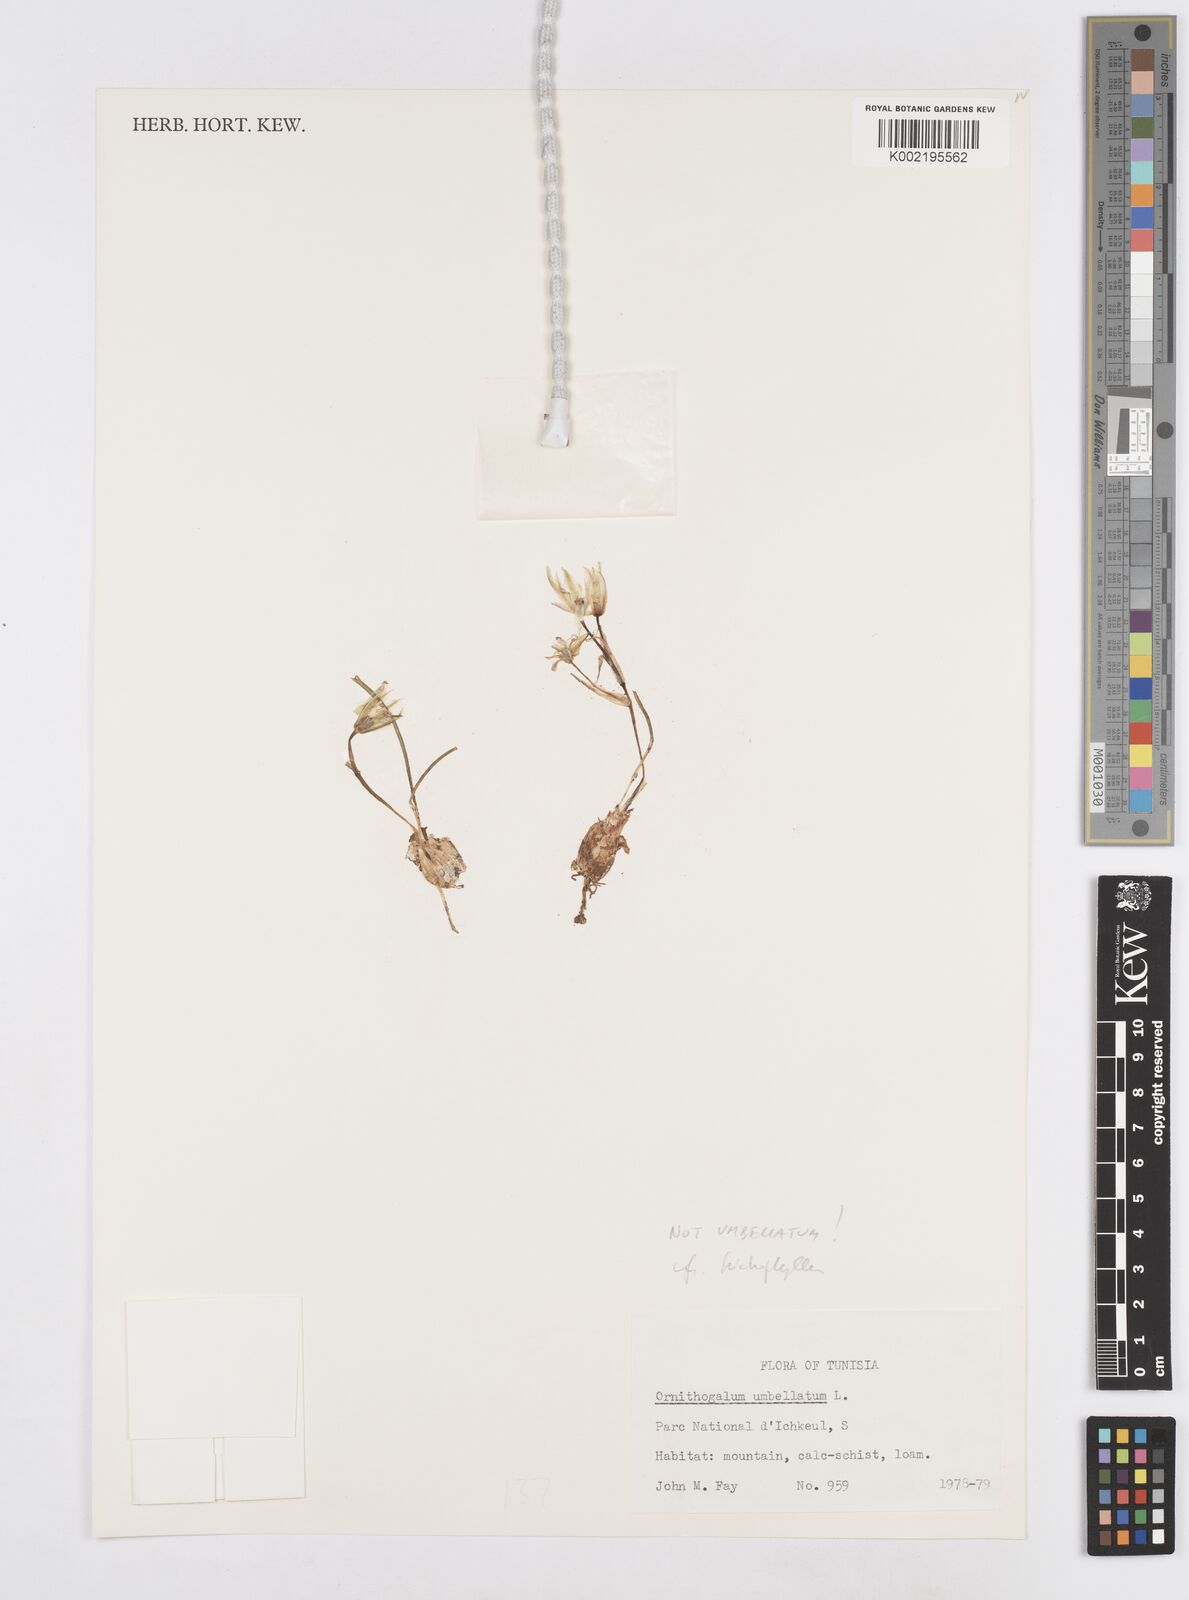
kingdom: Plantae
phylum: Tracheophyta
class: Liliopsida
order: Asparagales
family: Asparagaceae
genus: Ornithogalum
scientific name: Ornithogalum umbellatum
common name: Garden star-of-bethlehem
